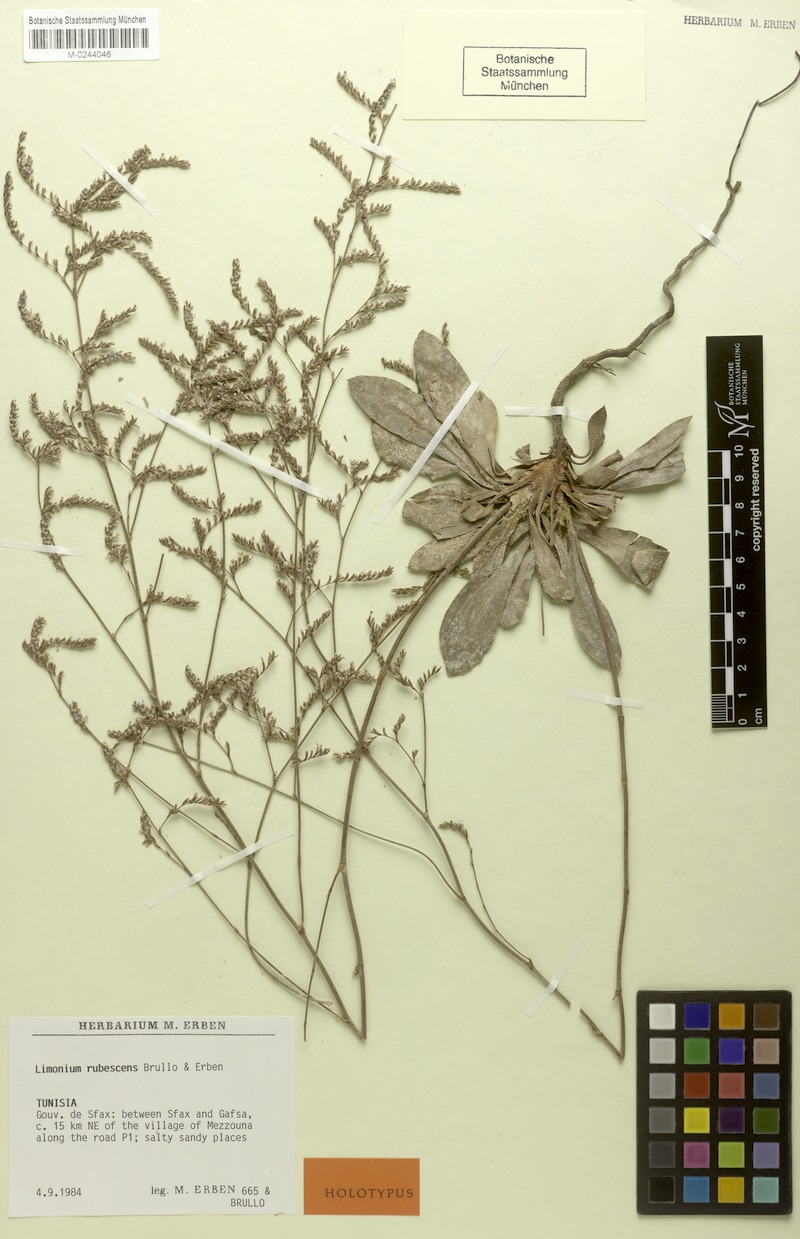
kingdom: Plantae
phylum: Tracheophyta
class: Magnoliopsida
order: Caryophyllales
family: Plumbaginaceae
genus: Limonium
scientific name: Limonium rubescens
